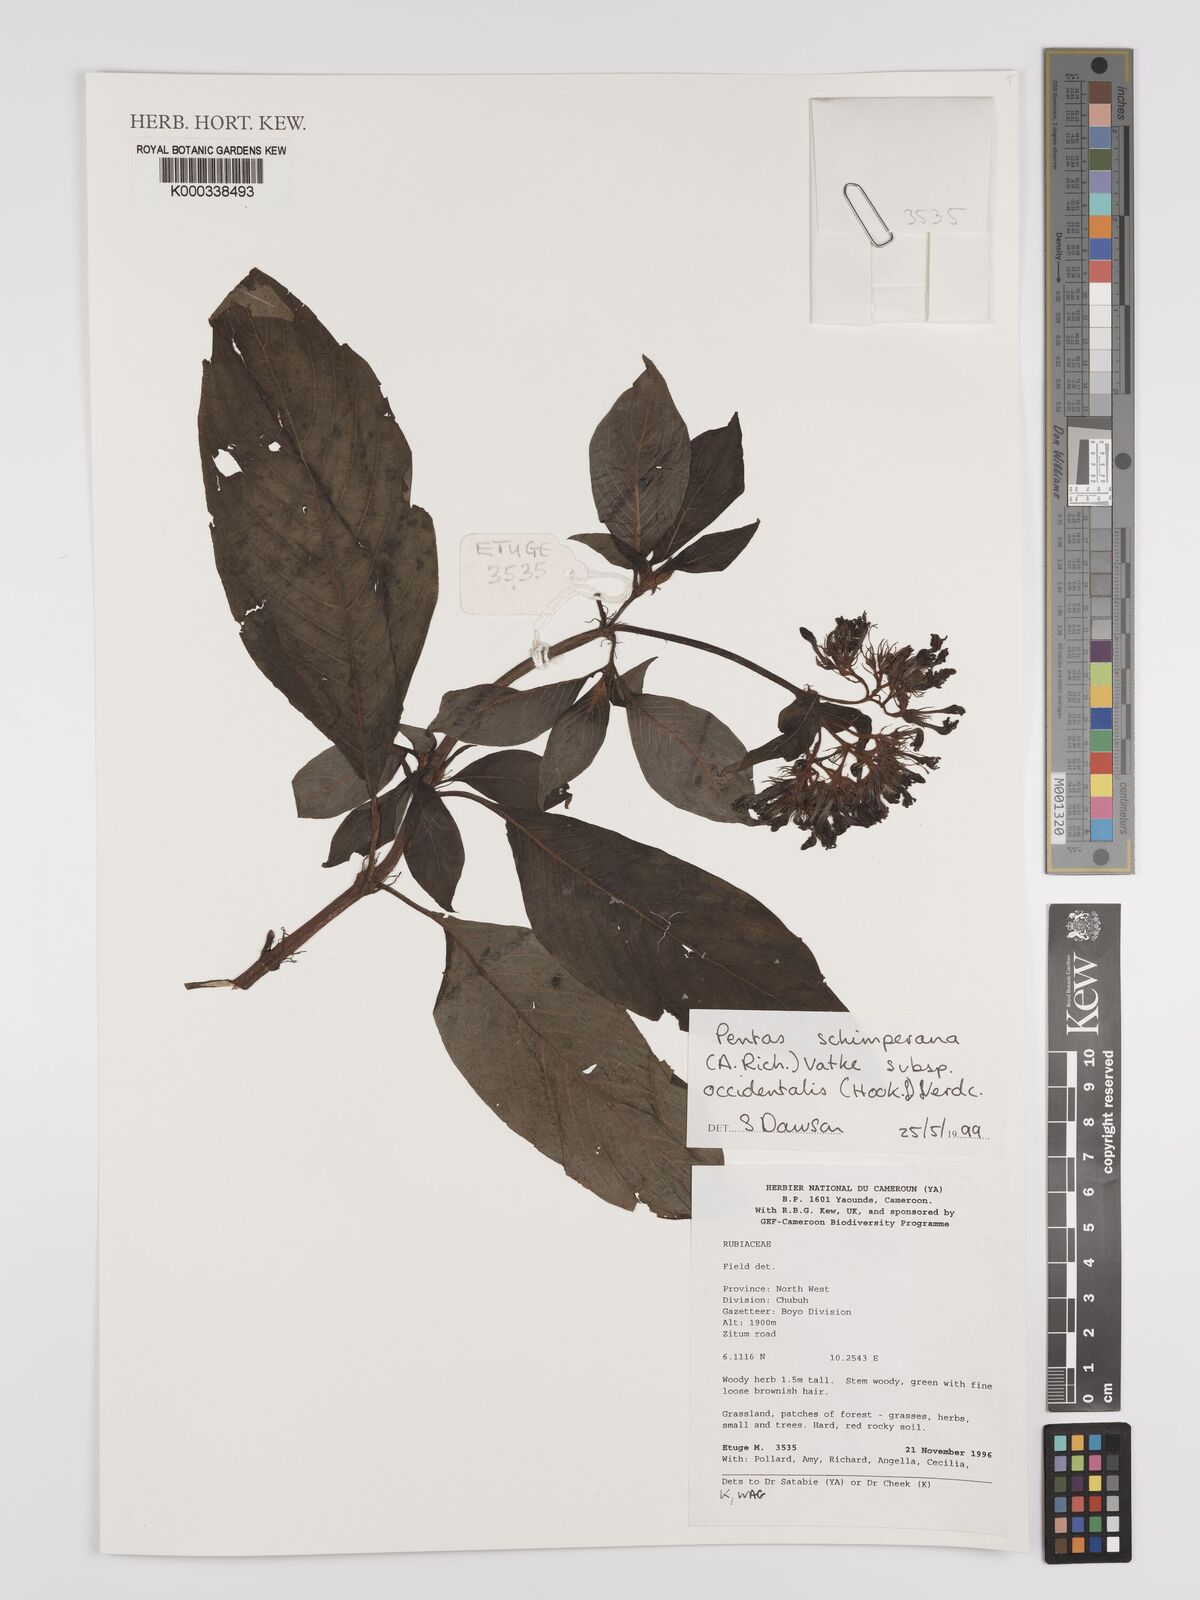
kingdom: Plantae
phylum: Tracheophyta
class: Magnoliopsida
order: Gentianales
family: Rubiaceae
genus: Phyllopentas
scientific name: Phyllopentas schimperi
